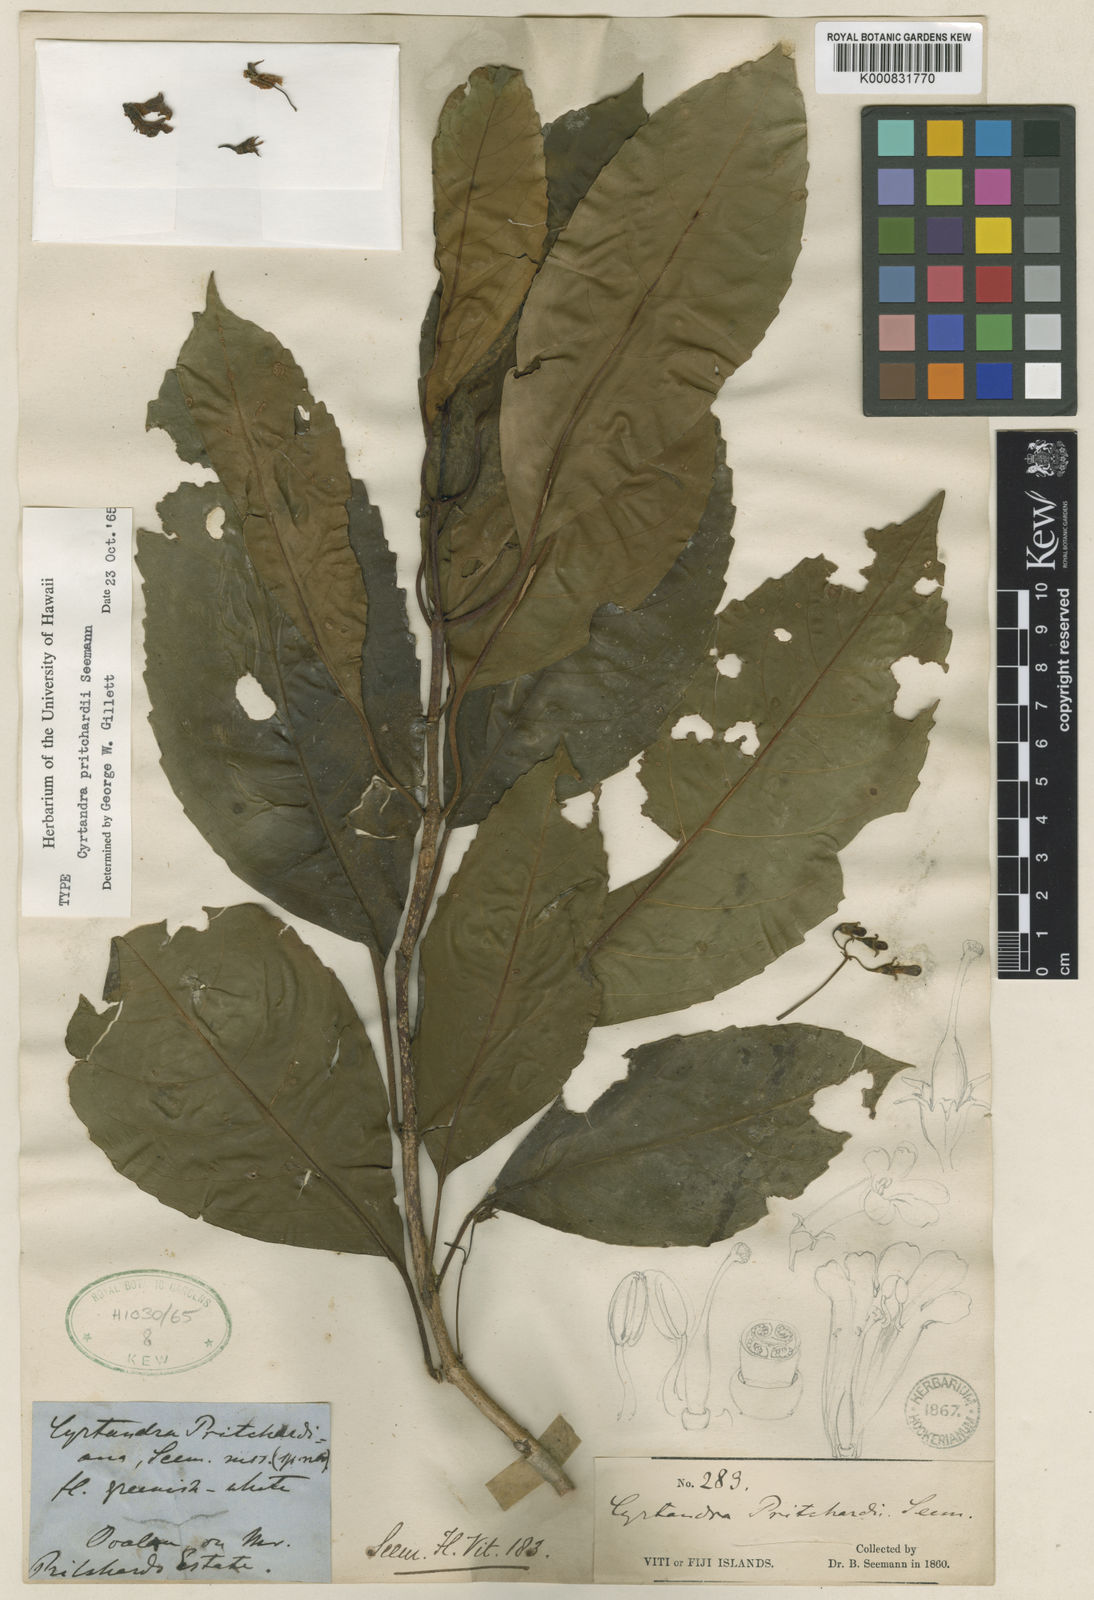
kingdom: Plantae
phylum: Tracheophyta
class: Magnoliopsida
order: Lamiales
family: Gesneriaceae
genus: Cyrtandra
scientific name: Cyrtandra pritchardii
